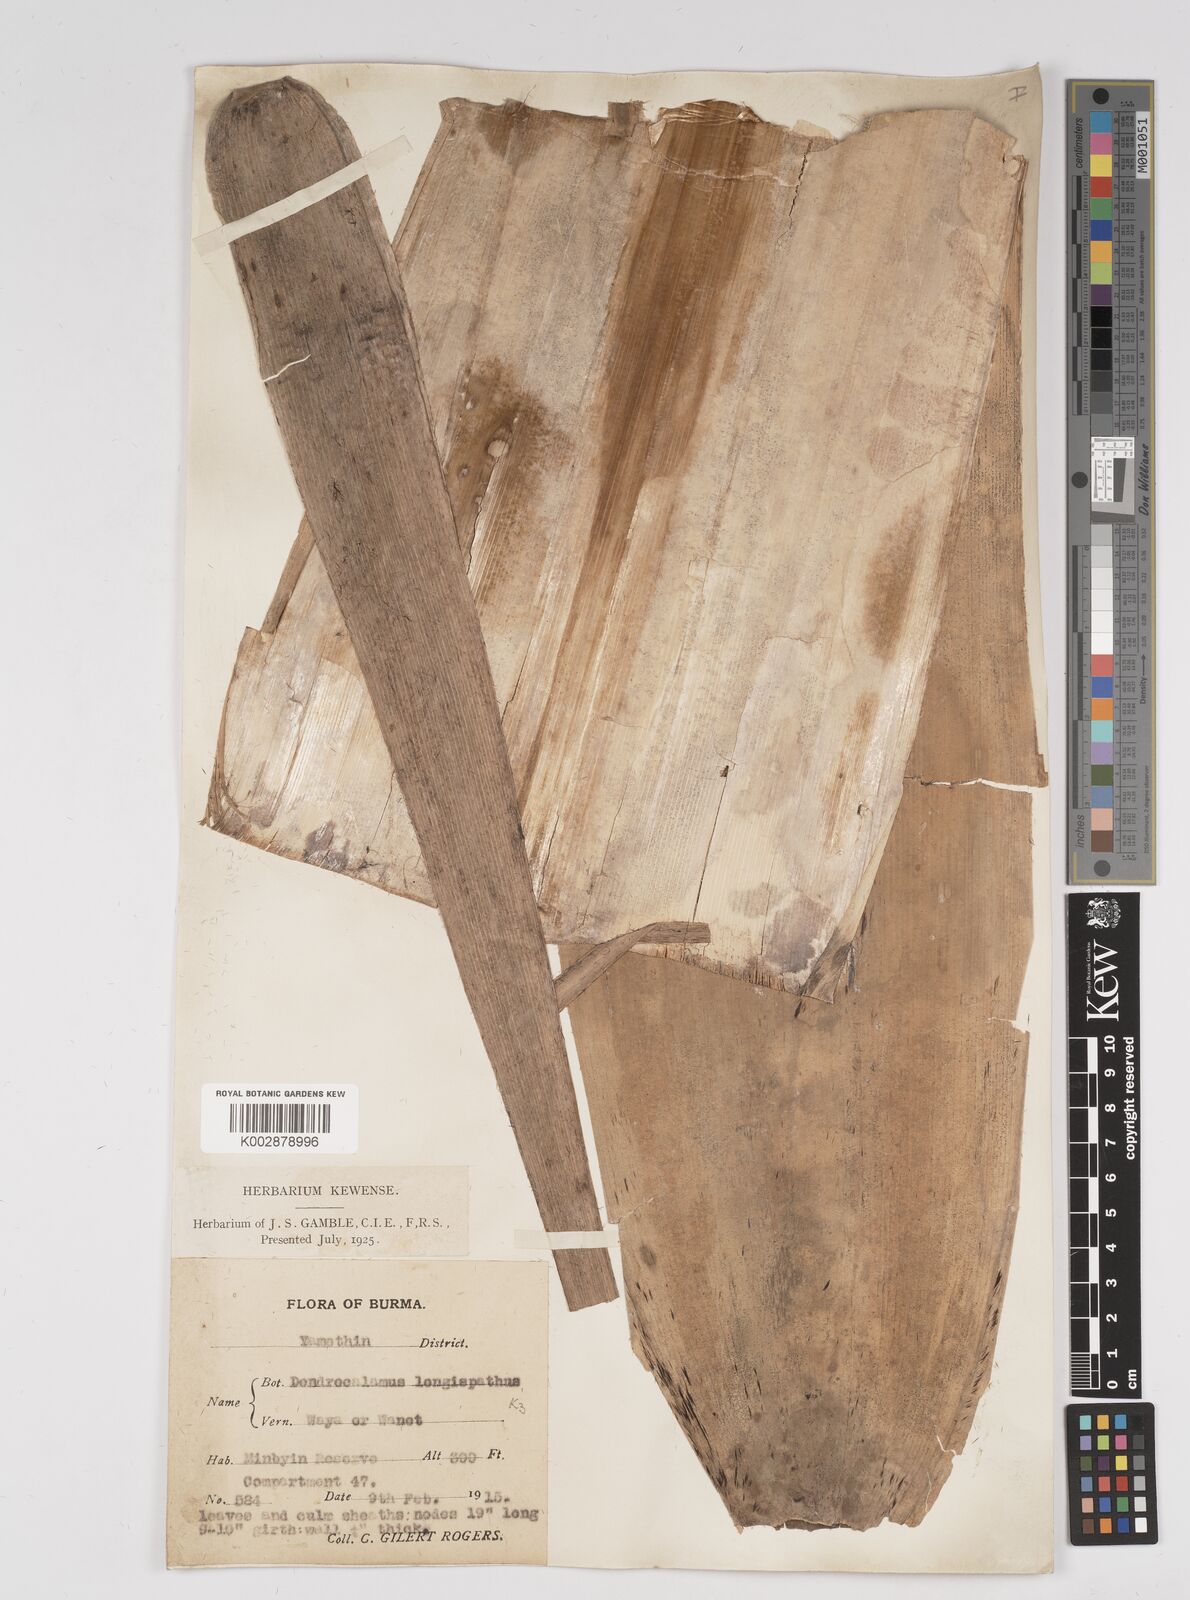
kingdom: Plantae
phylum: Tracheophyta
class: Liliopsida
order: Poales
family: Poaceae
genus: Dendrocalamus
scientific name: Dendrocalamus longispathus
